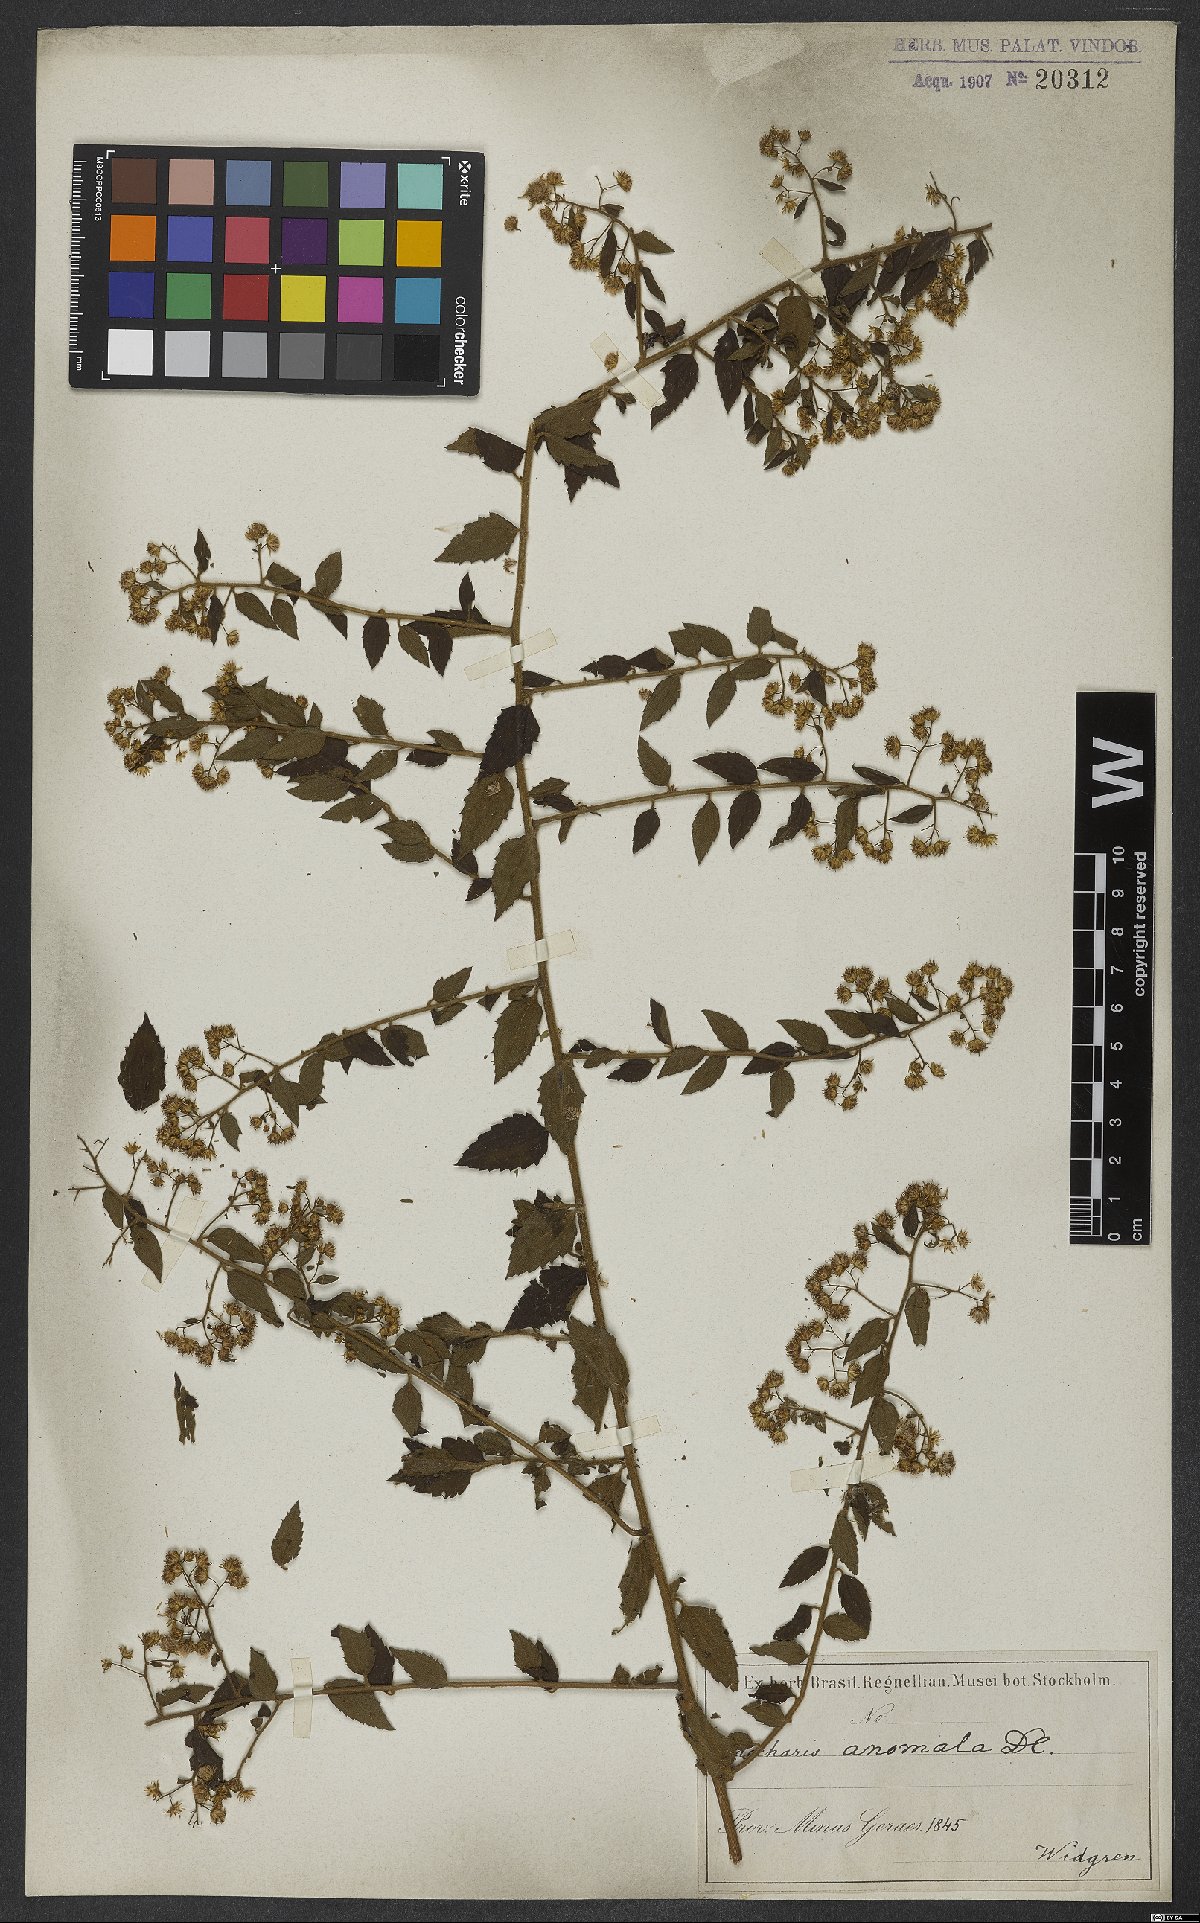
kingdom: Plantae
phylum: Tracheophyta
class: Magnoliopsida
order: Asterales
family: Asteraceae
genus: Baccharis
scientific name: Baccharis anomala
